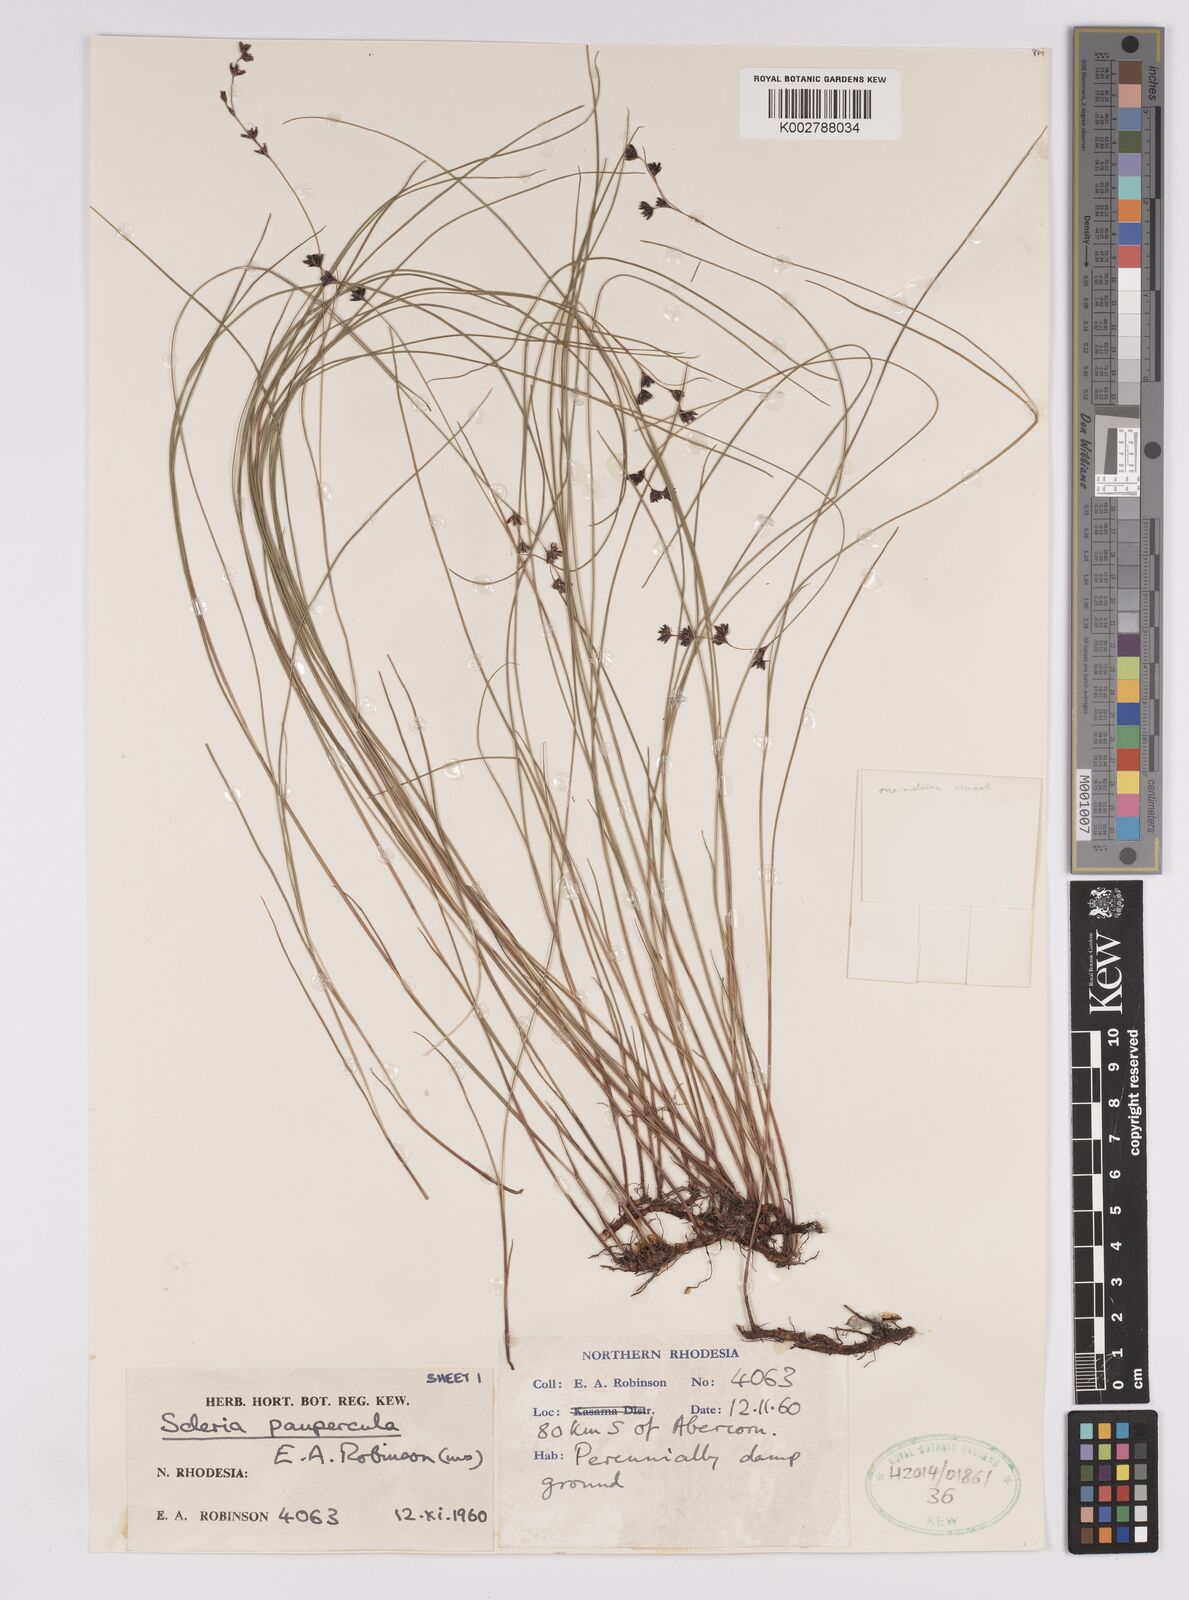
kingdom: Plantae
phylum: Tracheophyta
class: Liliopsida
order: Poales
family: Cyperaceae
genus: Scleria
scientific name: Scleria paupercula
